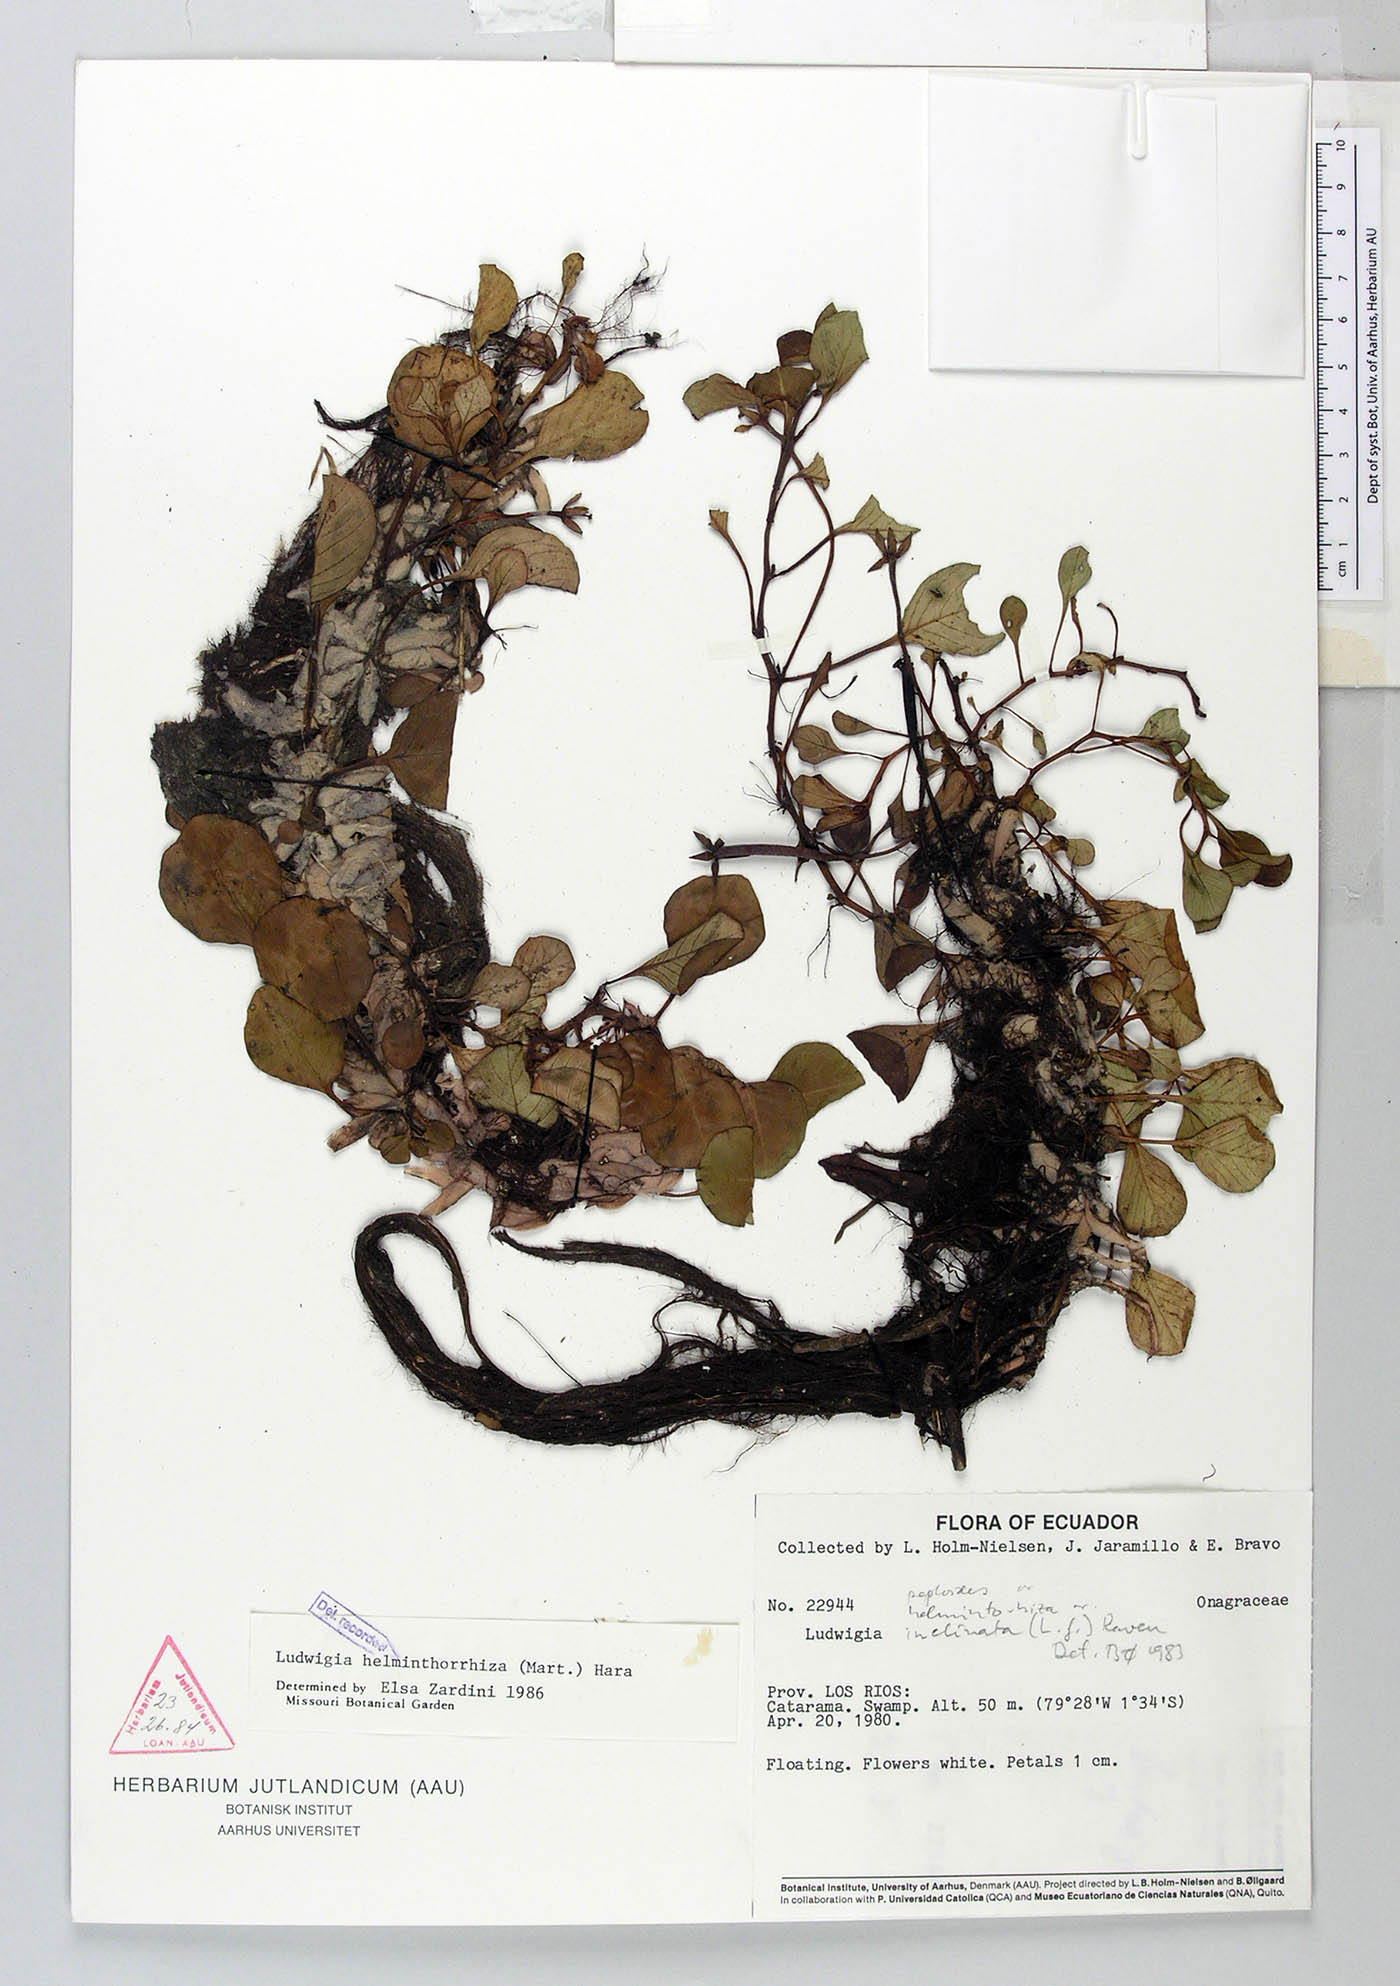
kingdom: Plantae
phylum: Tracheophyta
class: Magnoliopsida
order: Myrtales
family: Onagraceae
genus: Ludwigia
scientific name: Ludwigia helminthorrhiza
